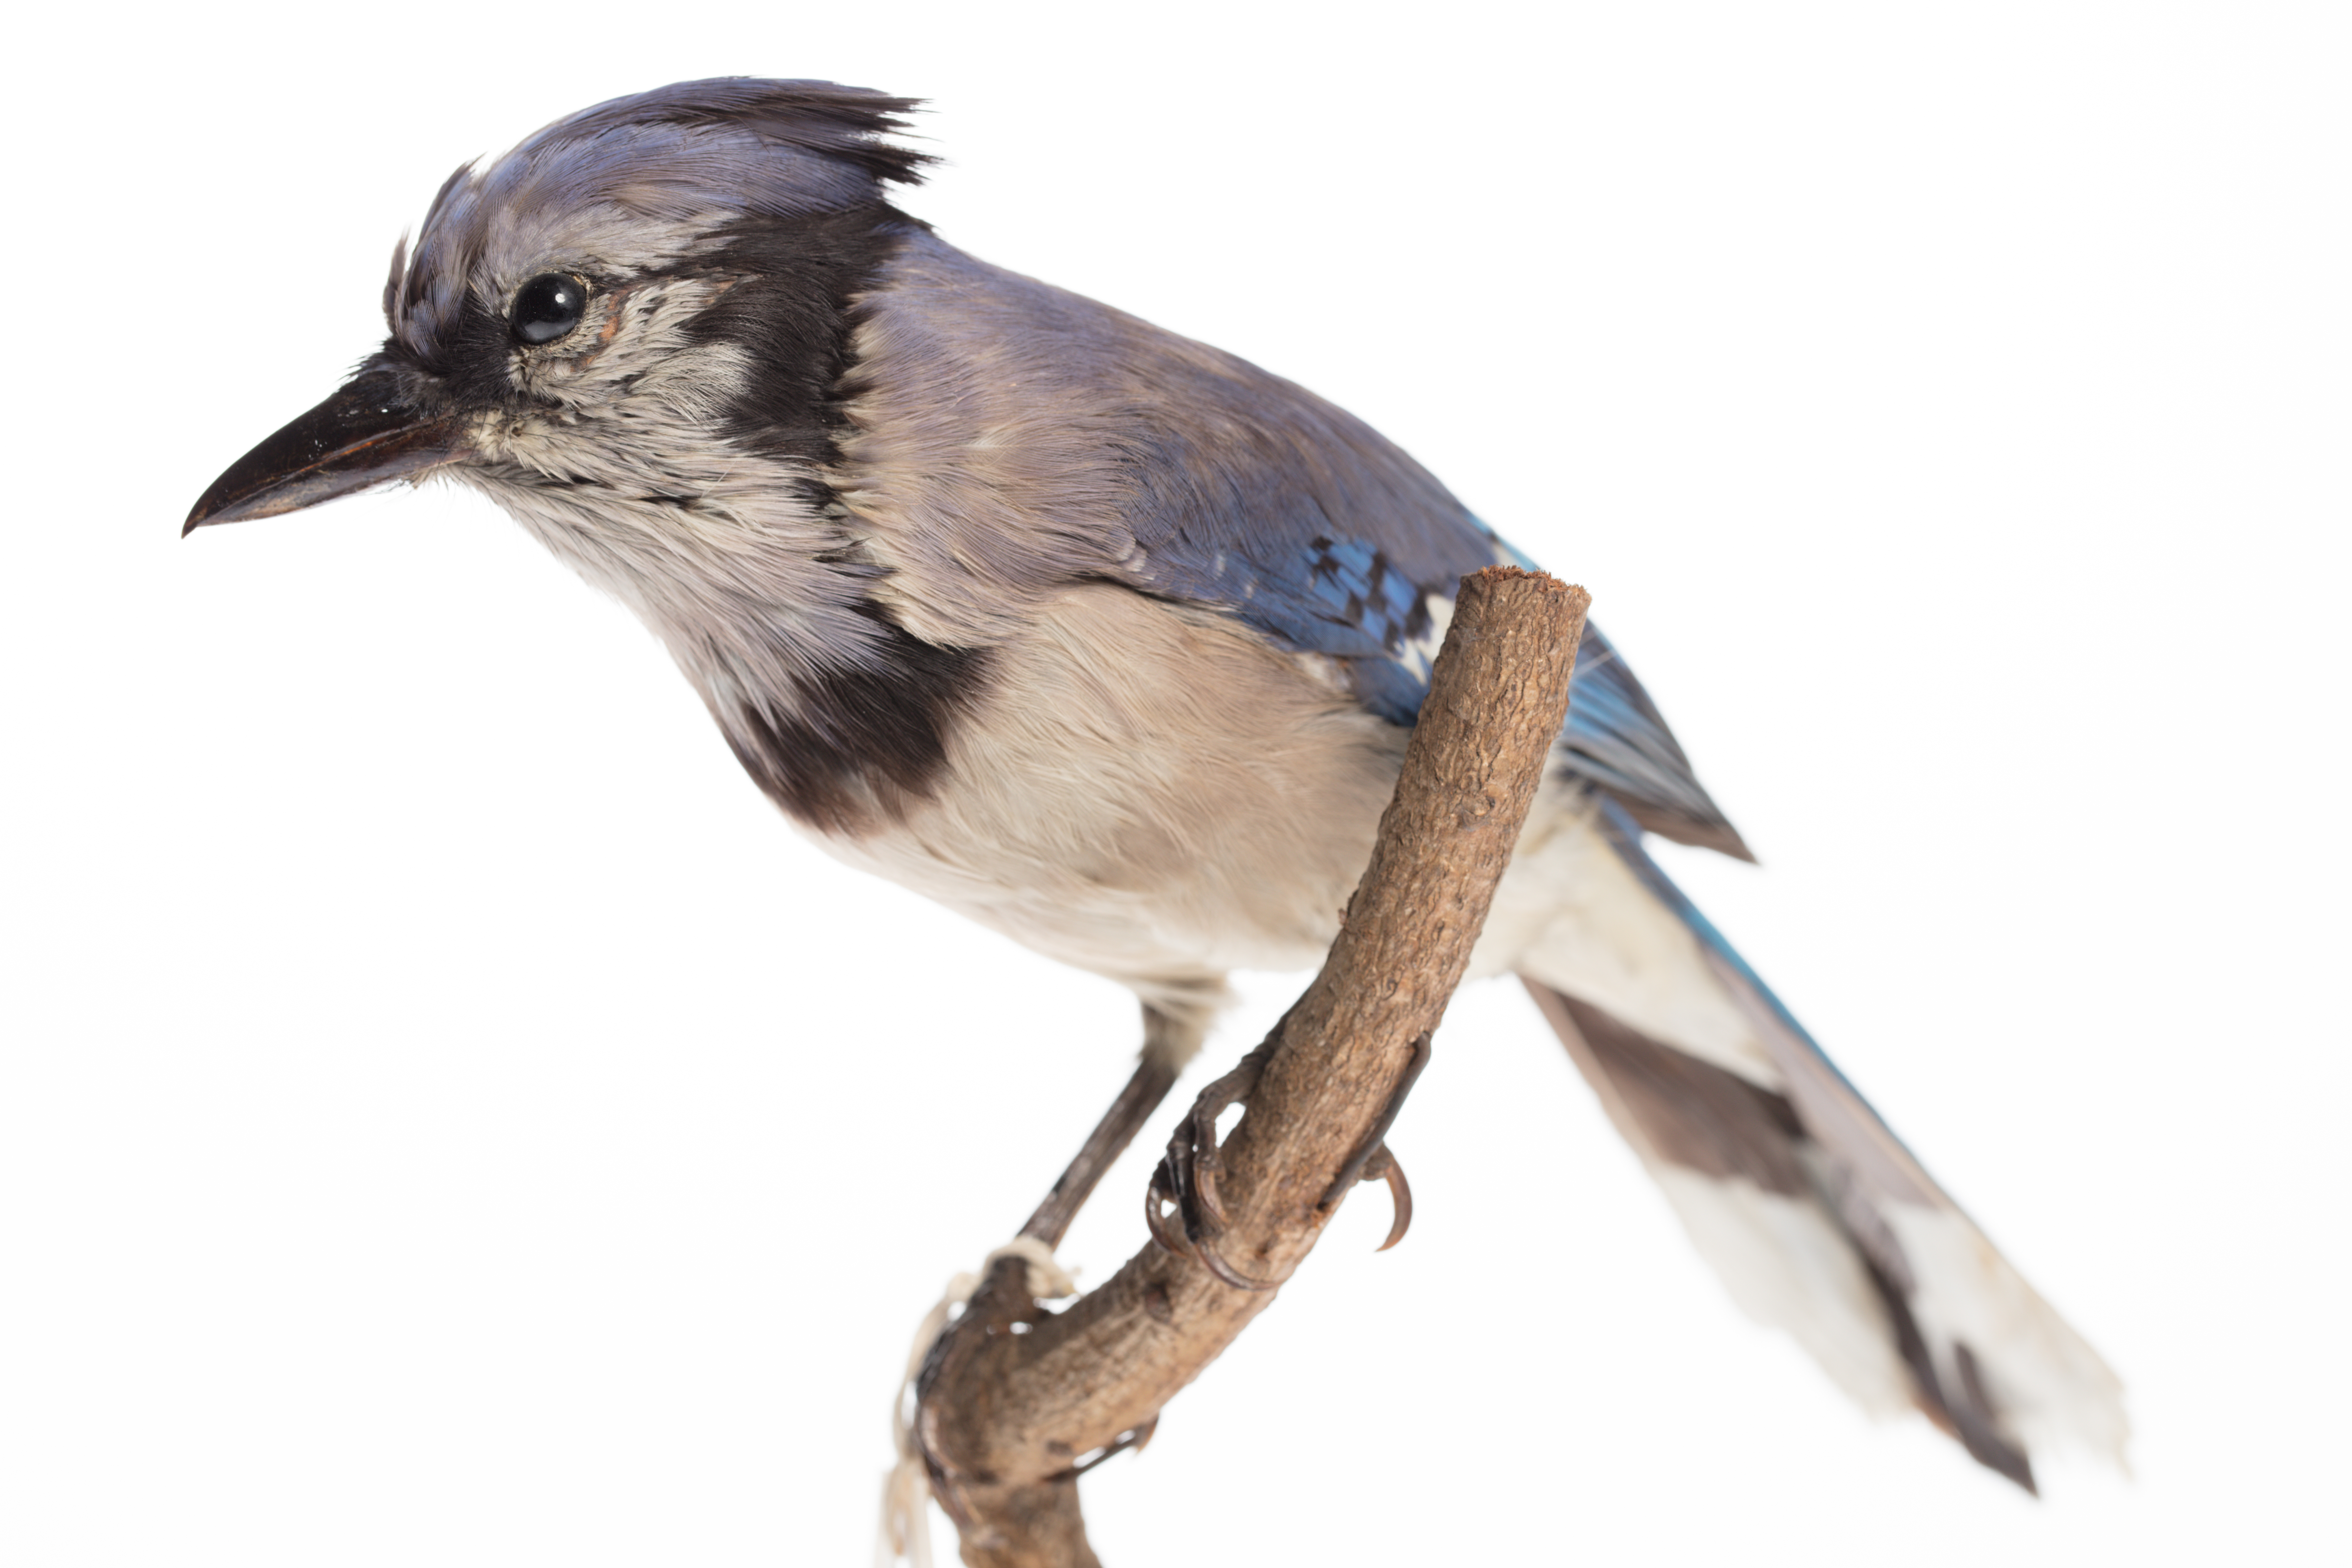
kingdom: Animalia
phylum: Chordata
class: Aves
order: Passeriformes
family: Corvidae
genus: Cyanocitta
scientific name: Cyanocitta cristata
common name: Blue jay
